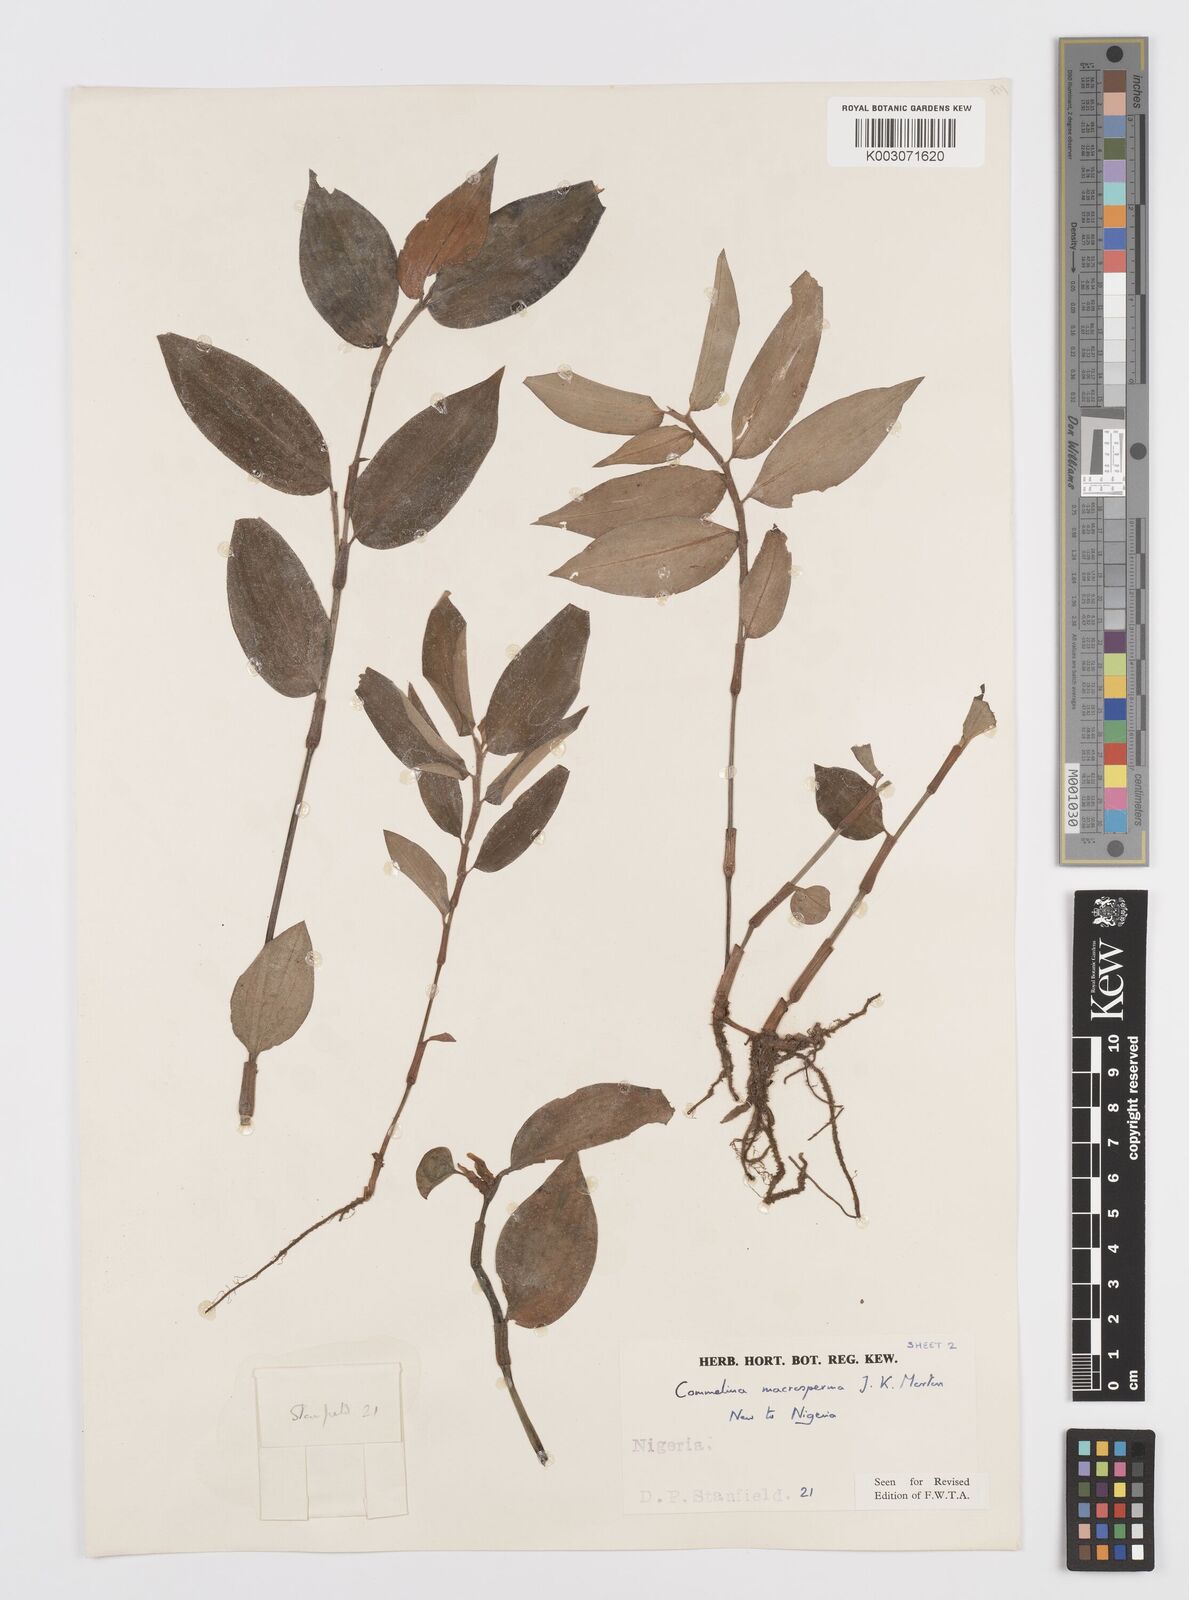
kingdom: Plantae
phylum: Tracheophyta
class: Liliopsida
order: Commelinales
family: Commelinaceae
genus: Commelina
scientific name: Commelina macrosperma
